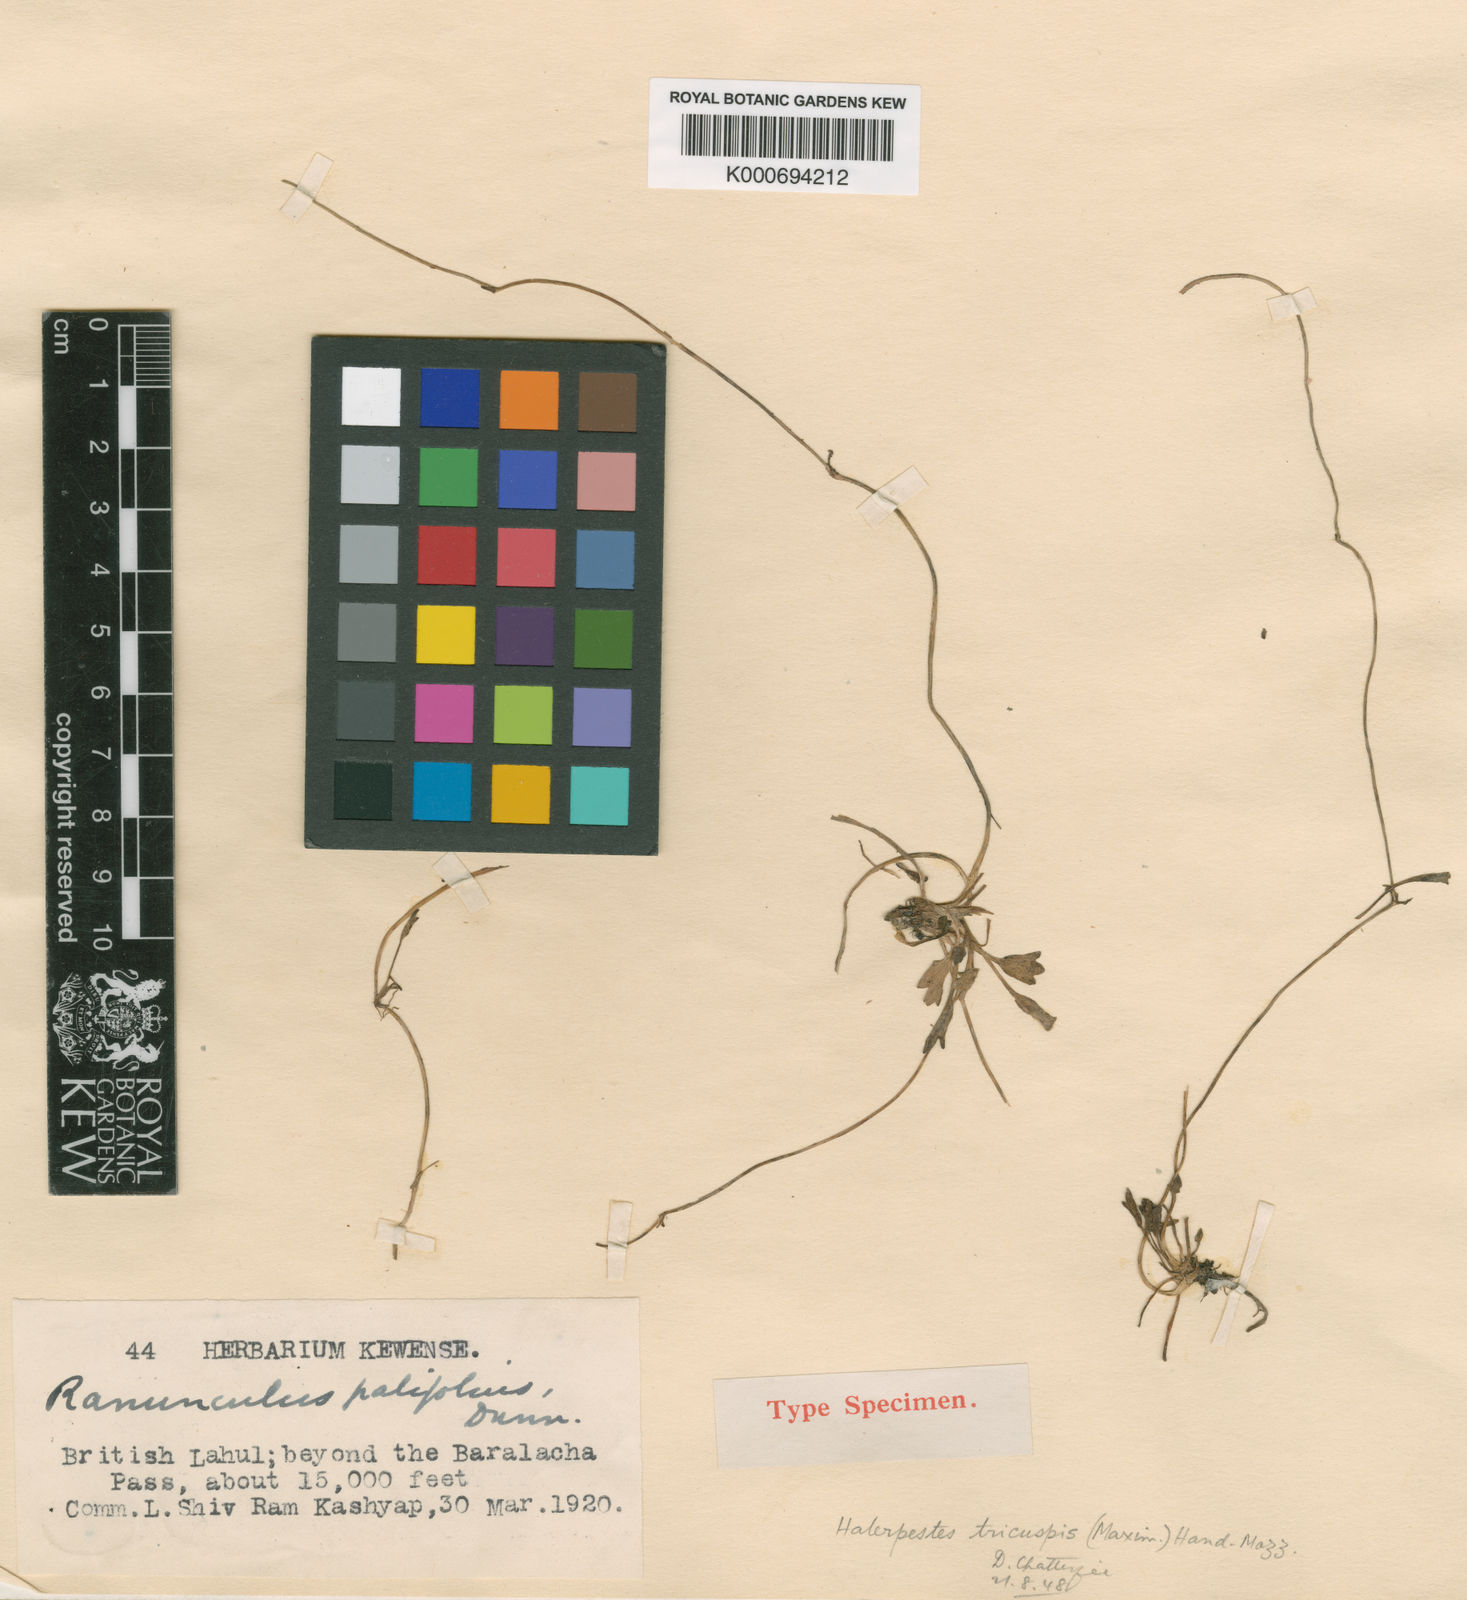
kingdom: Plantae
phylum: Tracheophyta
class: Magnoliopsida
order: Ranunculales
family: Ranunculaceae
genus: Halerpestes
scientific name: Halerpestes tricuspis
